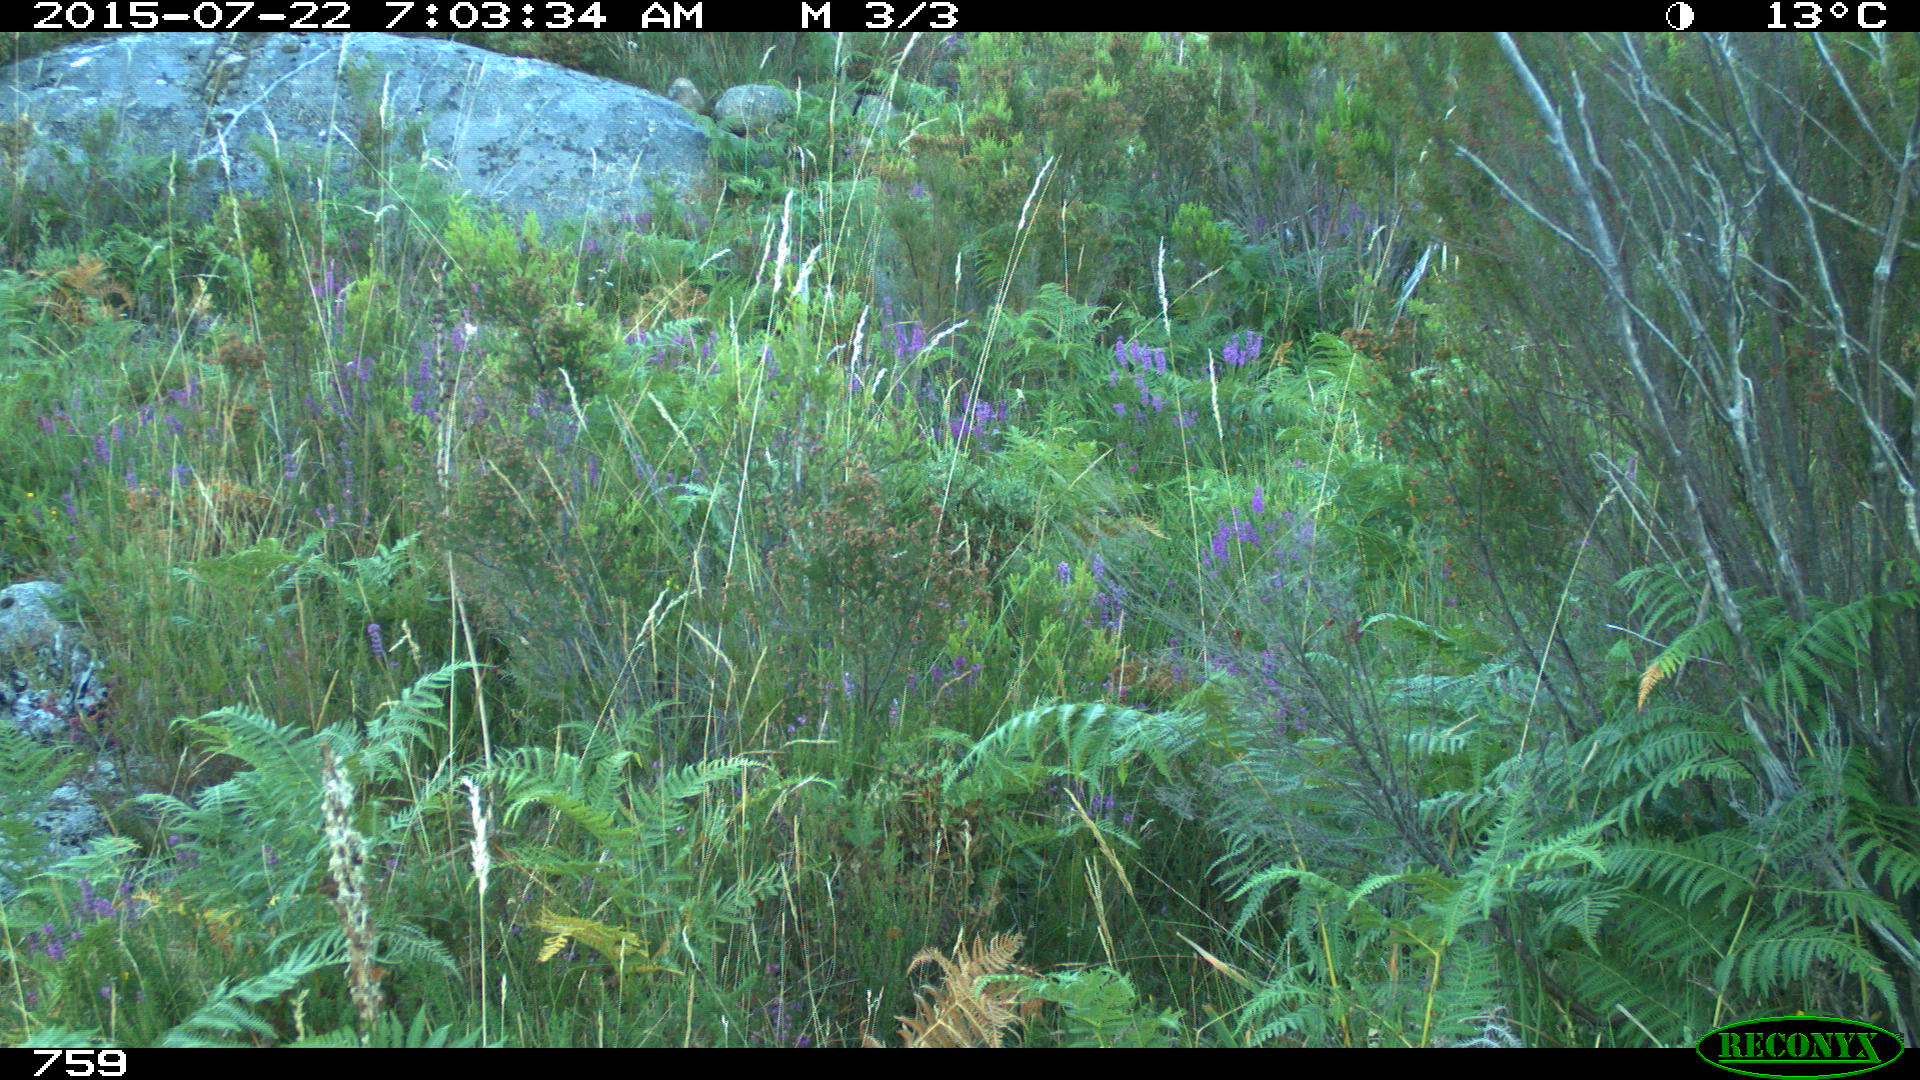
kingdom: Animalia
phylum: Chordata
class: Mammalia
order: Artiodactyla
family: Cervidae
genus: Capreolus
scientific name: Capreolus capreolus
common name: Western roe deer
